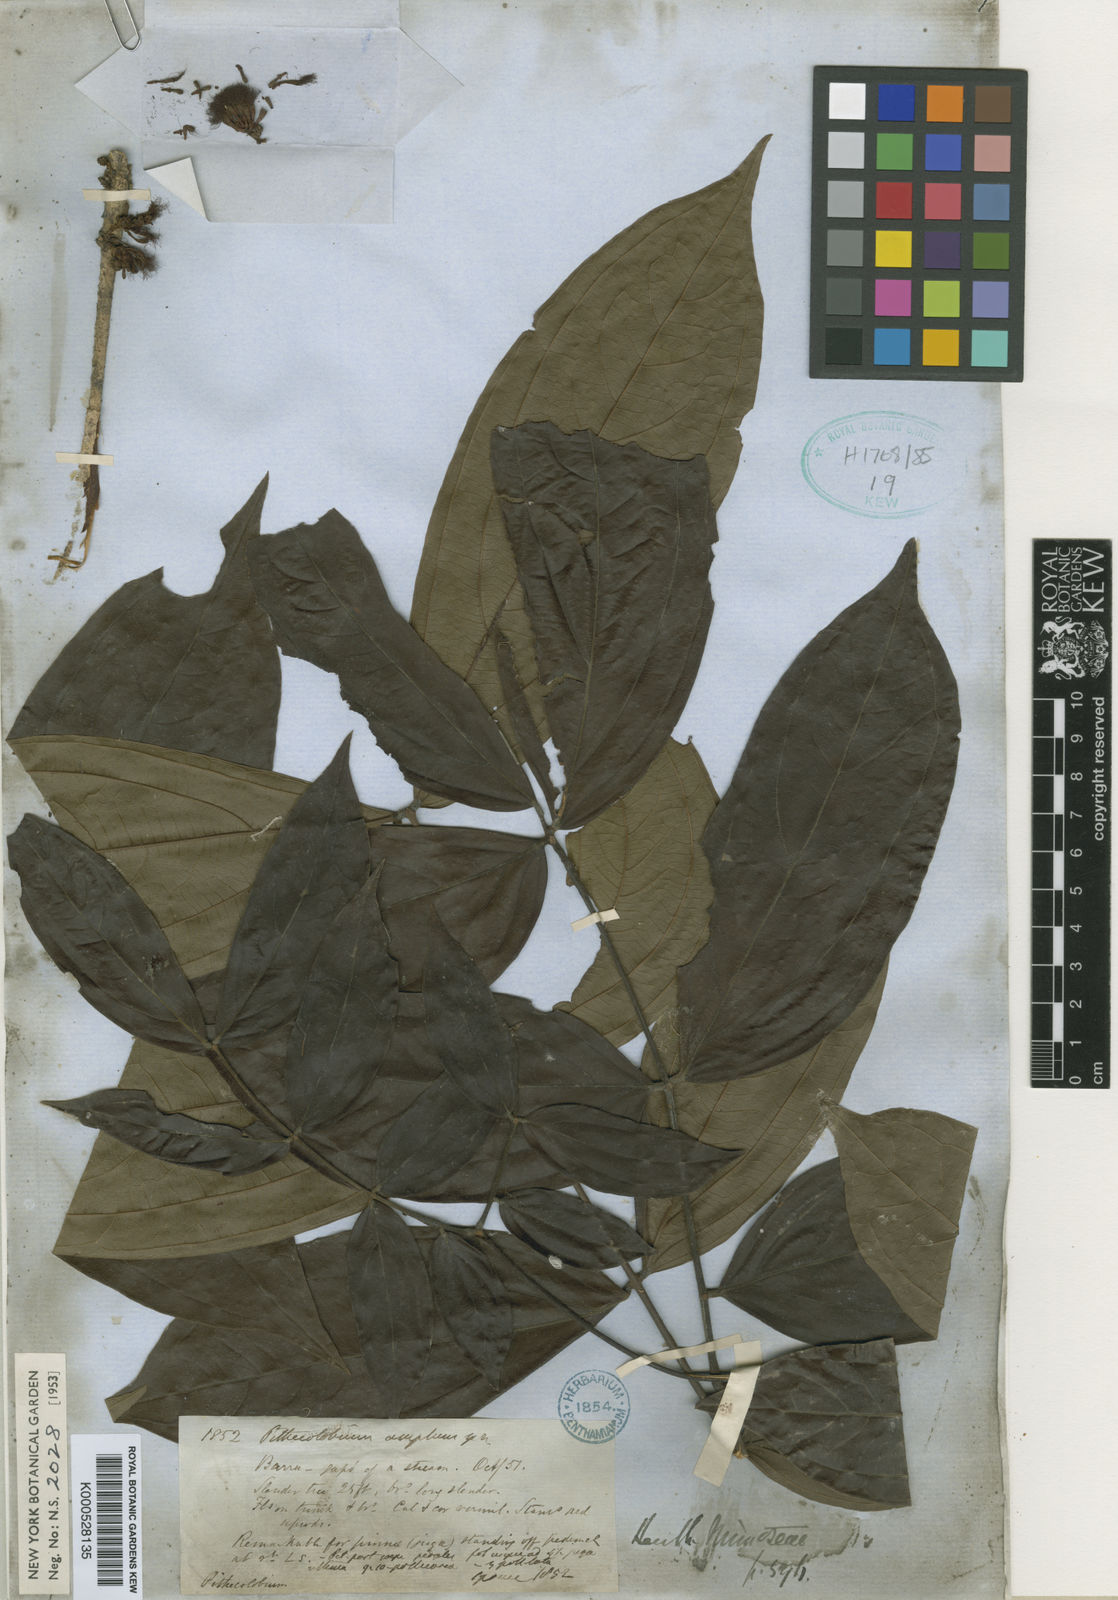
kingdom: Plantae
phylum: Tracheophyta
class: Magnoliopsida
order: Fabales
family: Fabaceae
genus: Zygia
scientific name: Zygia ampla
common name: Jarendeua de sapo
